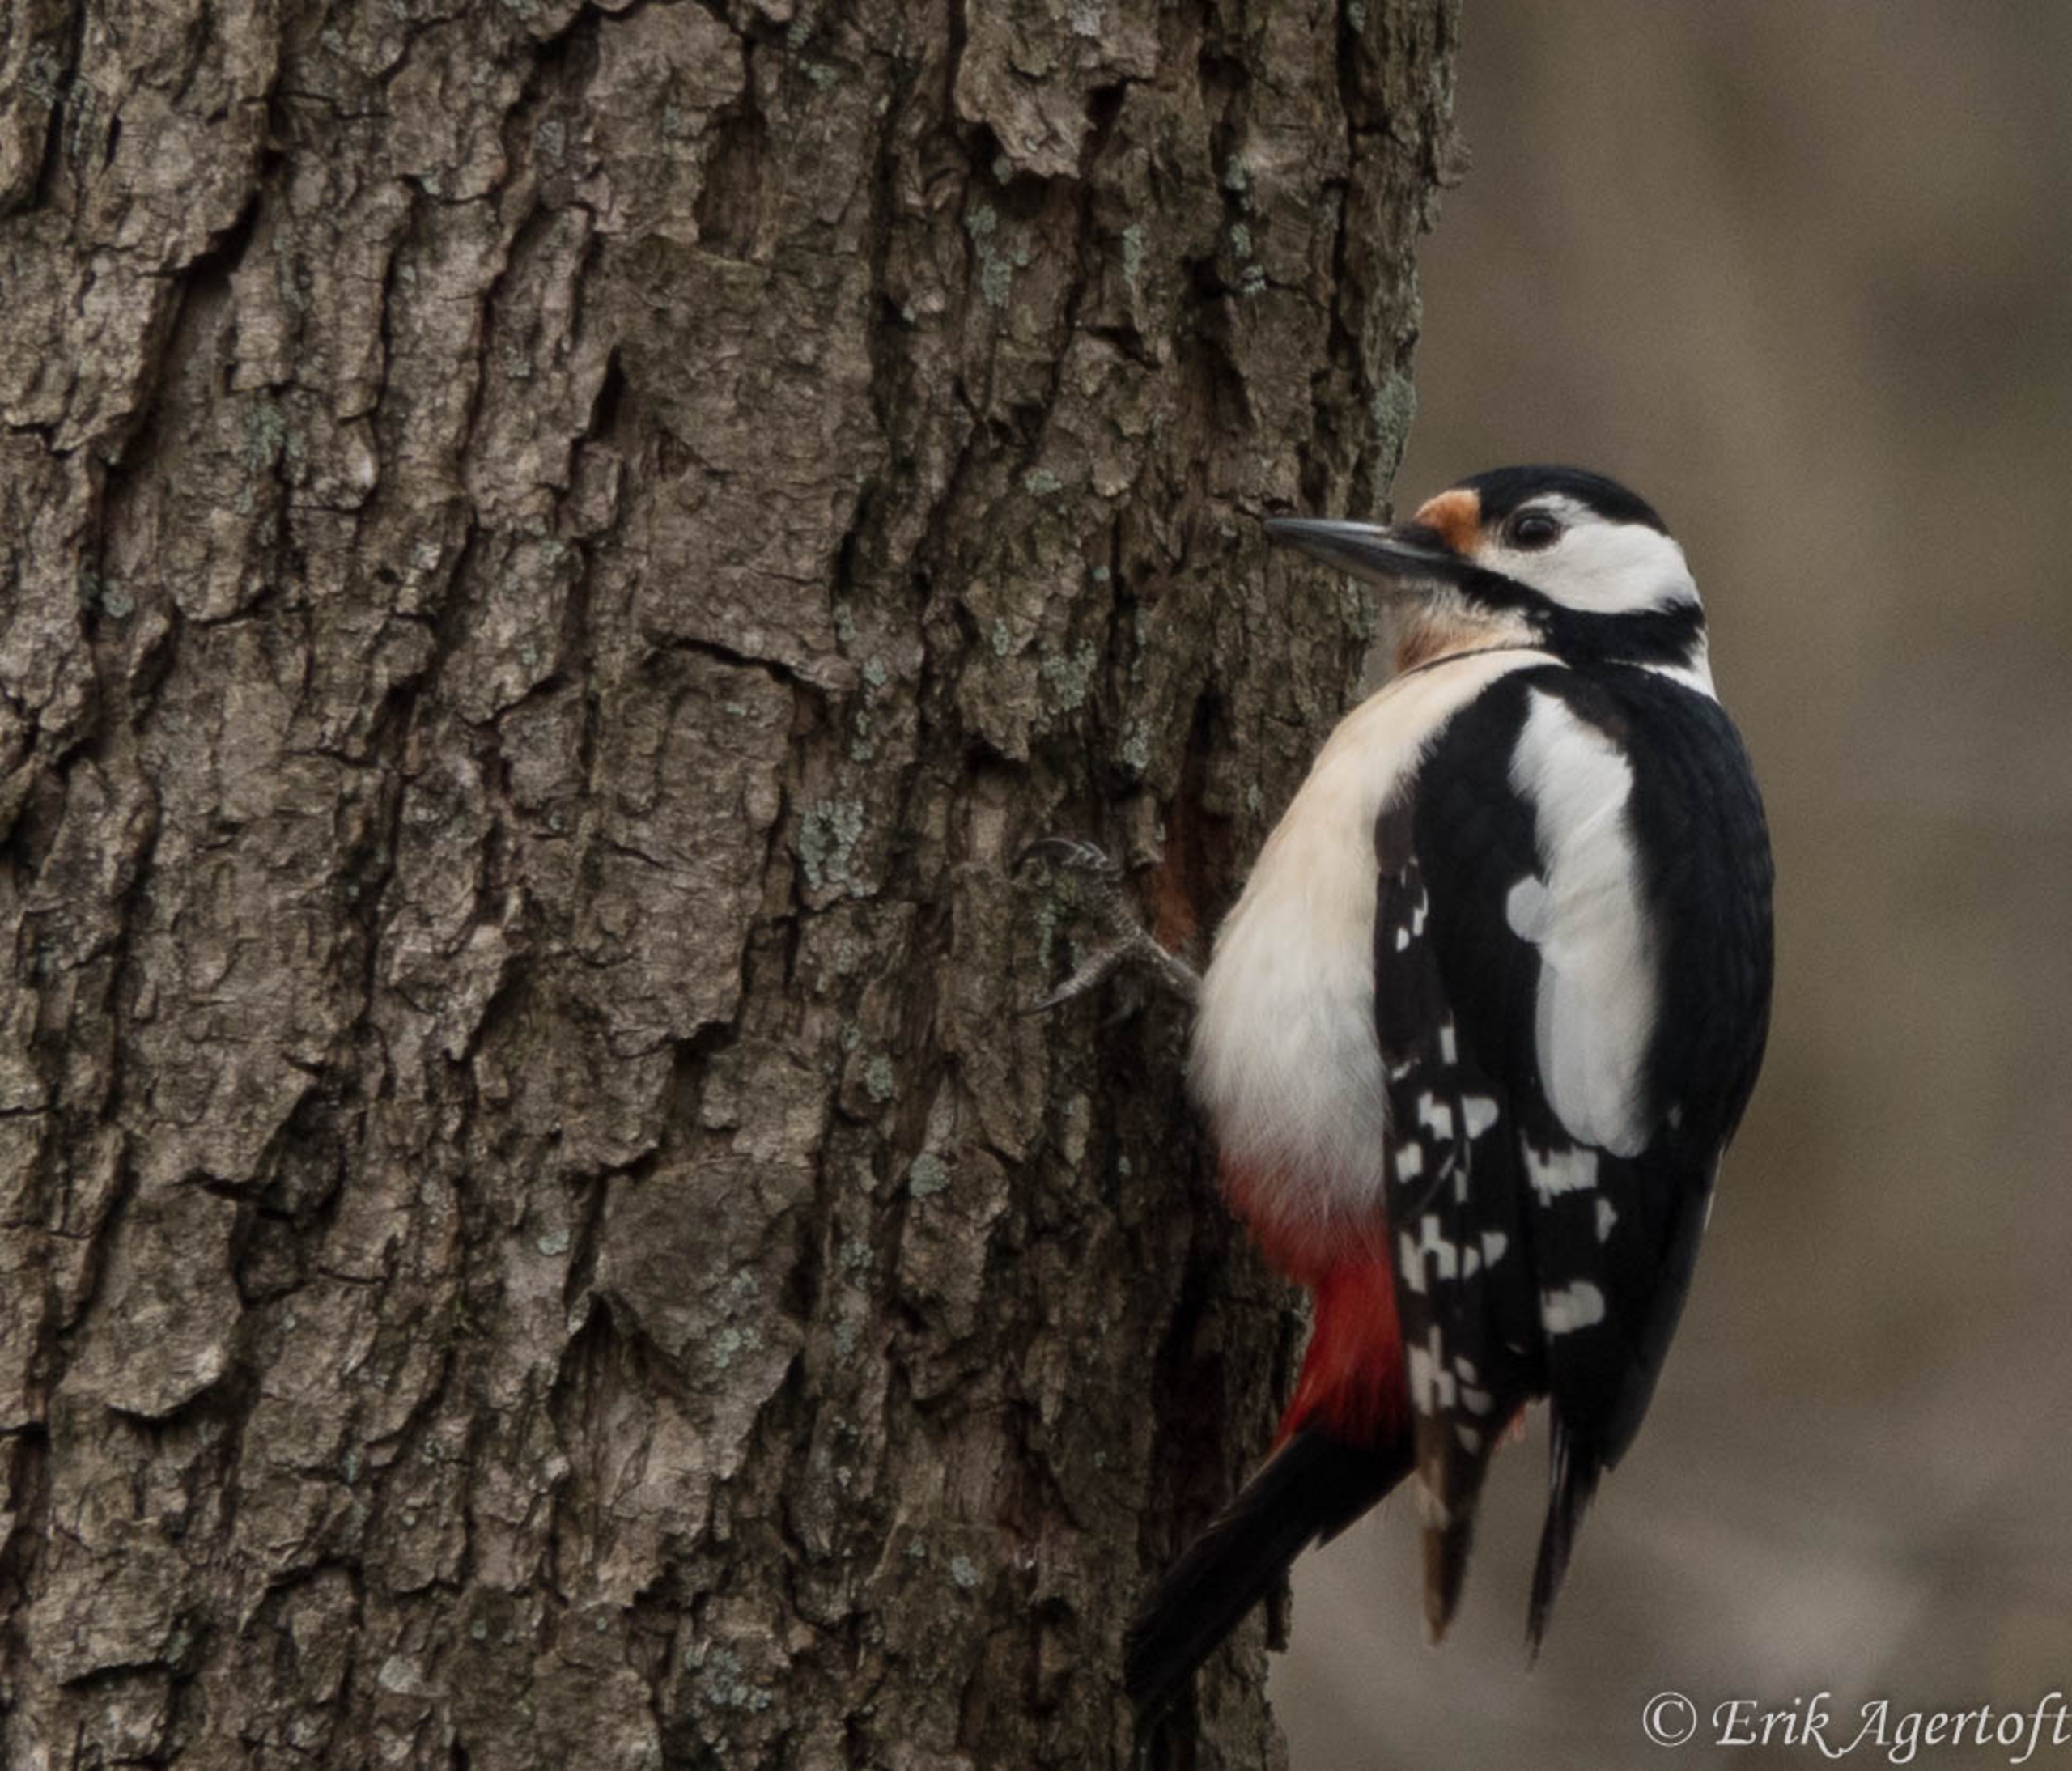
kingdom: Animalia
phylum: Chordata
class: Aves
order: Piciformes
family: Picidae
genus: Dendrocopos
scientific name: Dendrocopos major
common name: Stor flagspætte
